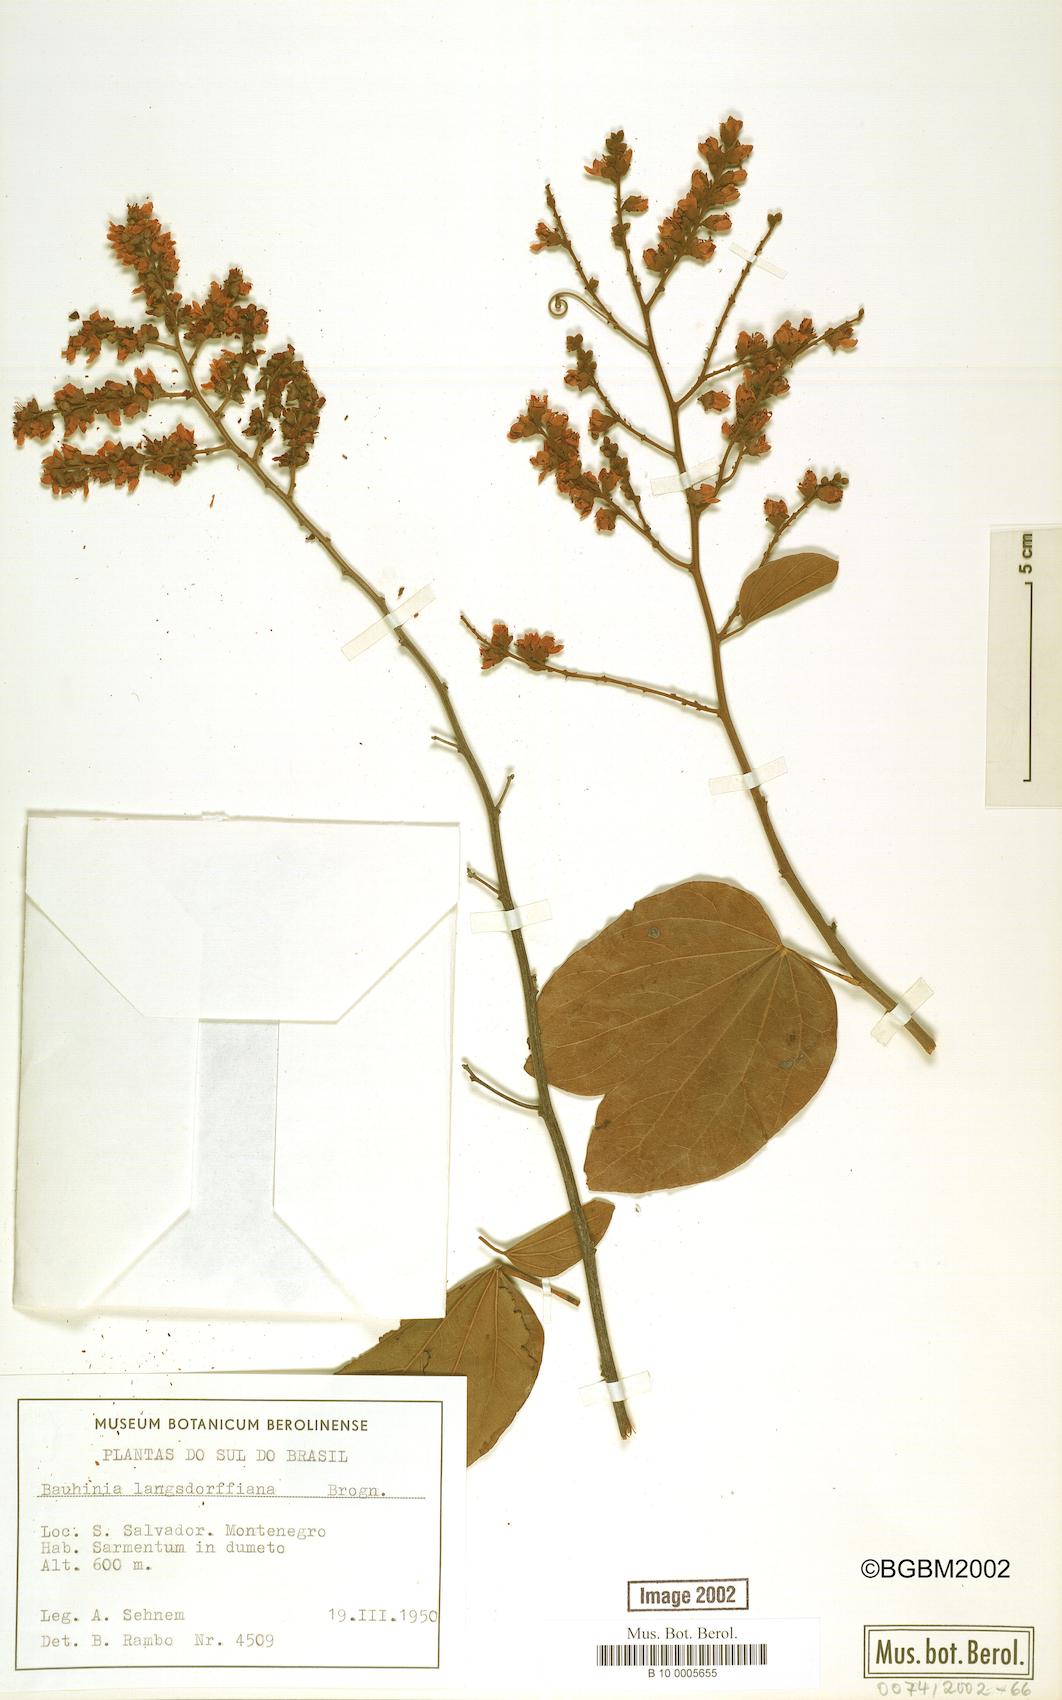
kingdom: Plantae
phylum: Tracheophyta
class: Magnoliopsida
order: Fabales
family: Fabaceae
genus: Schnella
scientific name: Schnella microstachya
